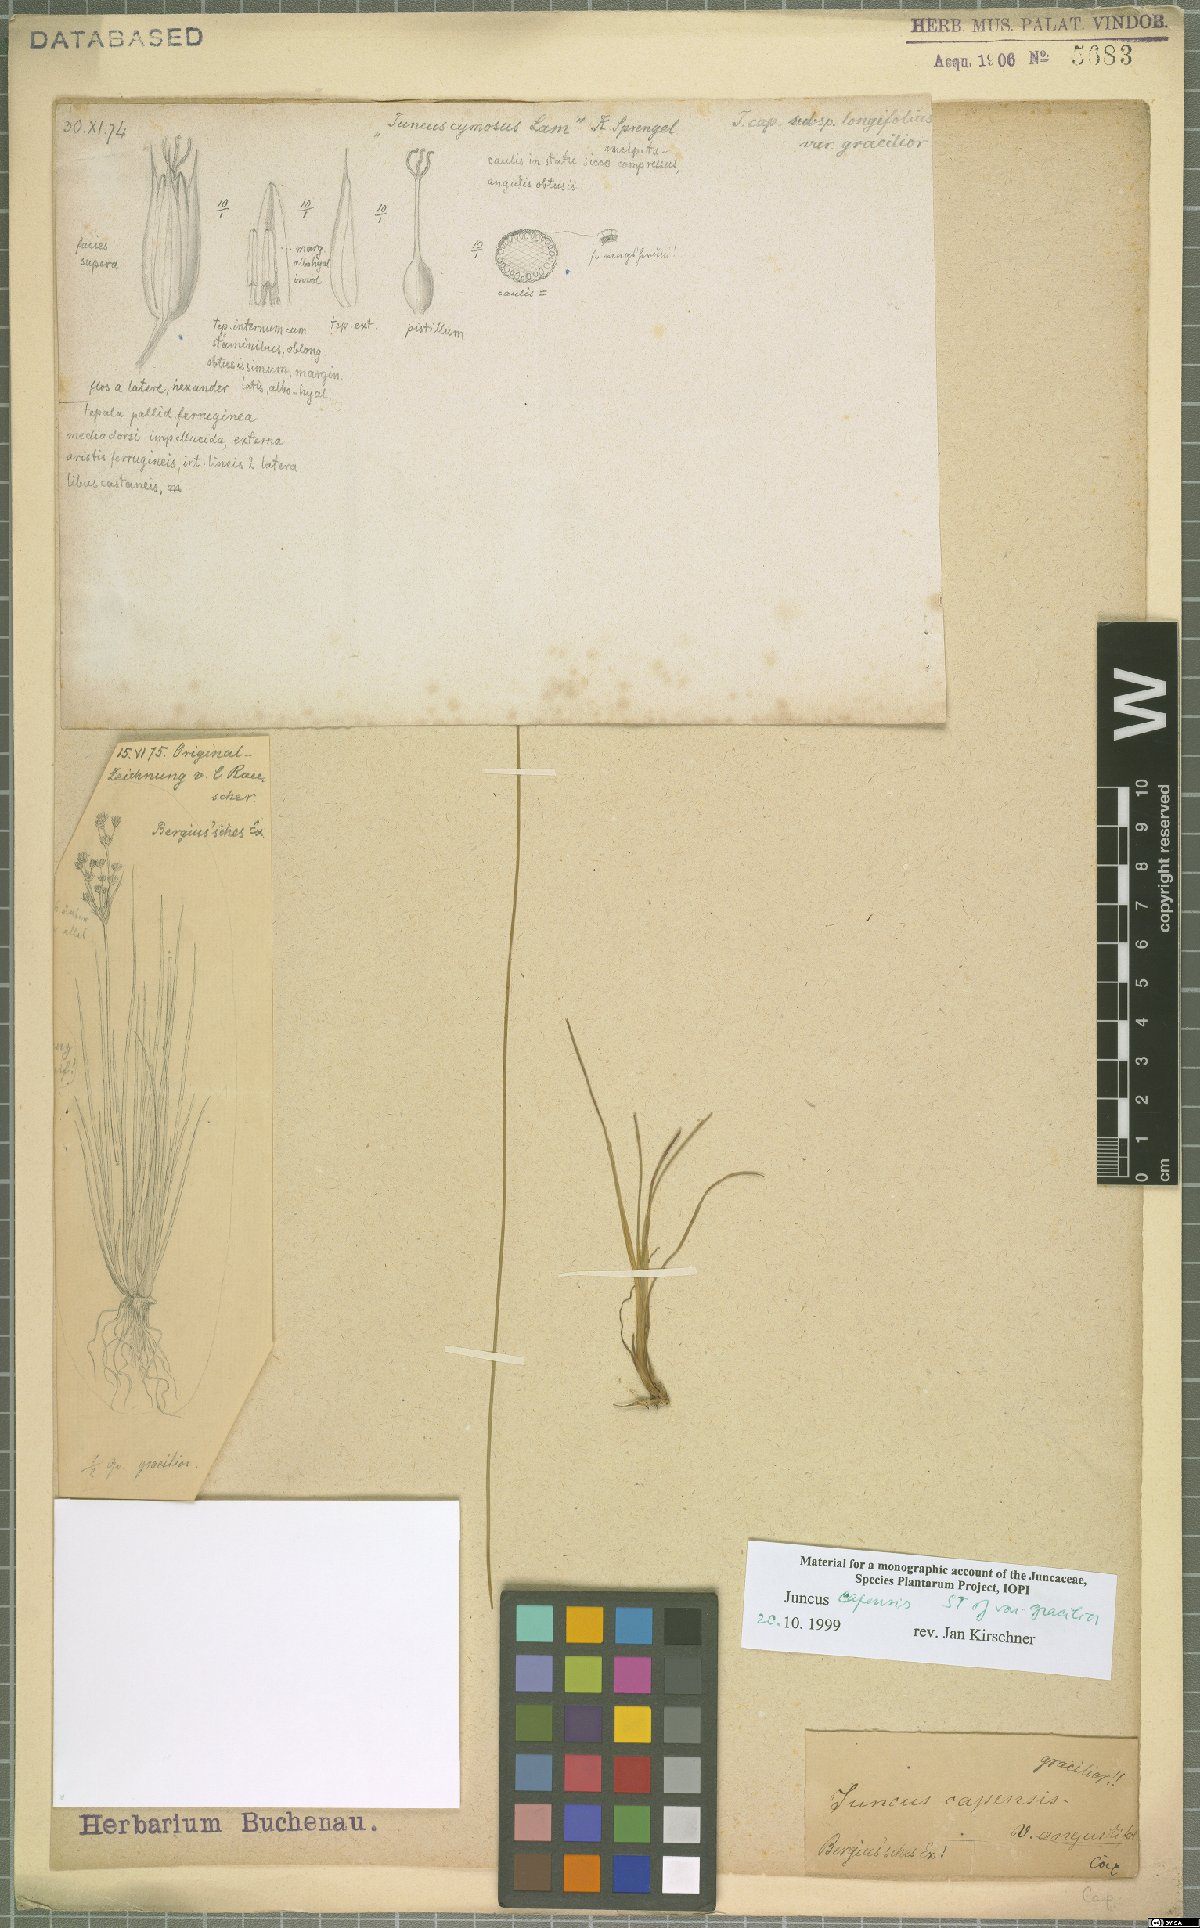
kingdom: Plantae
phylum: Tracheophyta
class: Liliopsida
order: Poales
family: Juncaceae
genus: Juncus
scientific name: Juncus capensis
